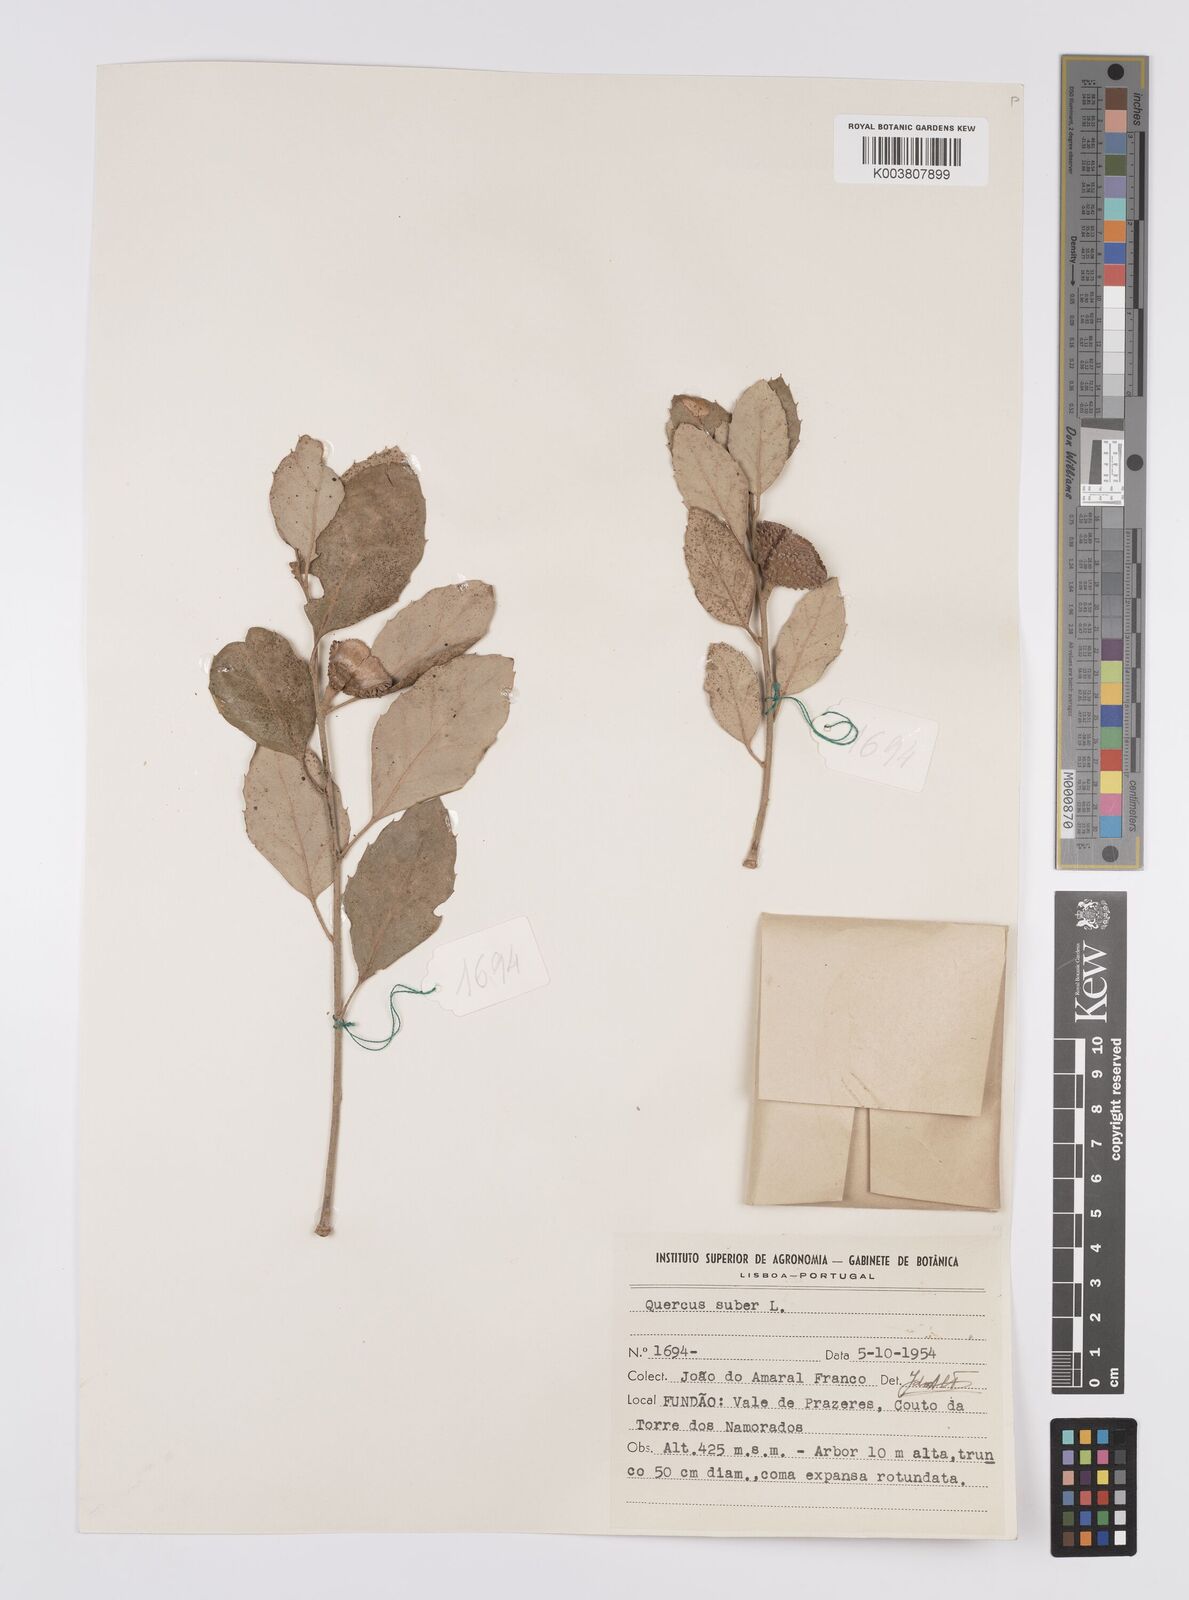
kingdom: Plantae
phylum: Tracheophyta
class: Magnoliopsida
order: Fagales
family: Fagaceae
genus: Quercus
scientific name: Quercus suber
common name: Cork oak
